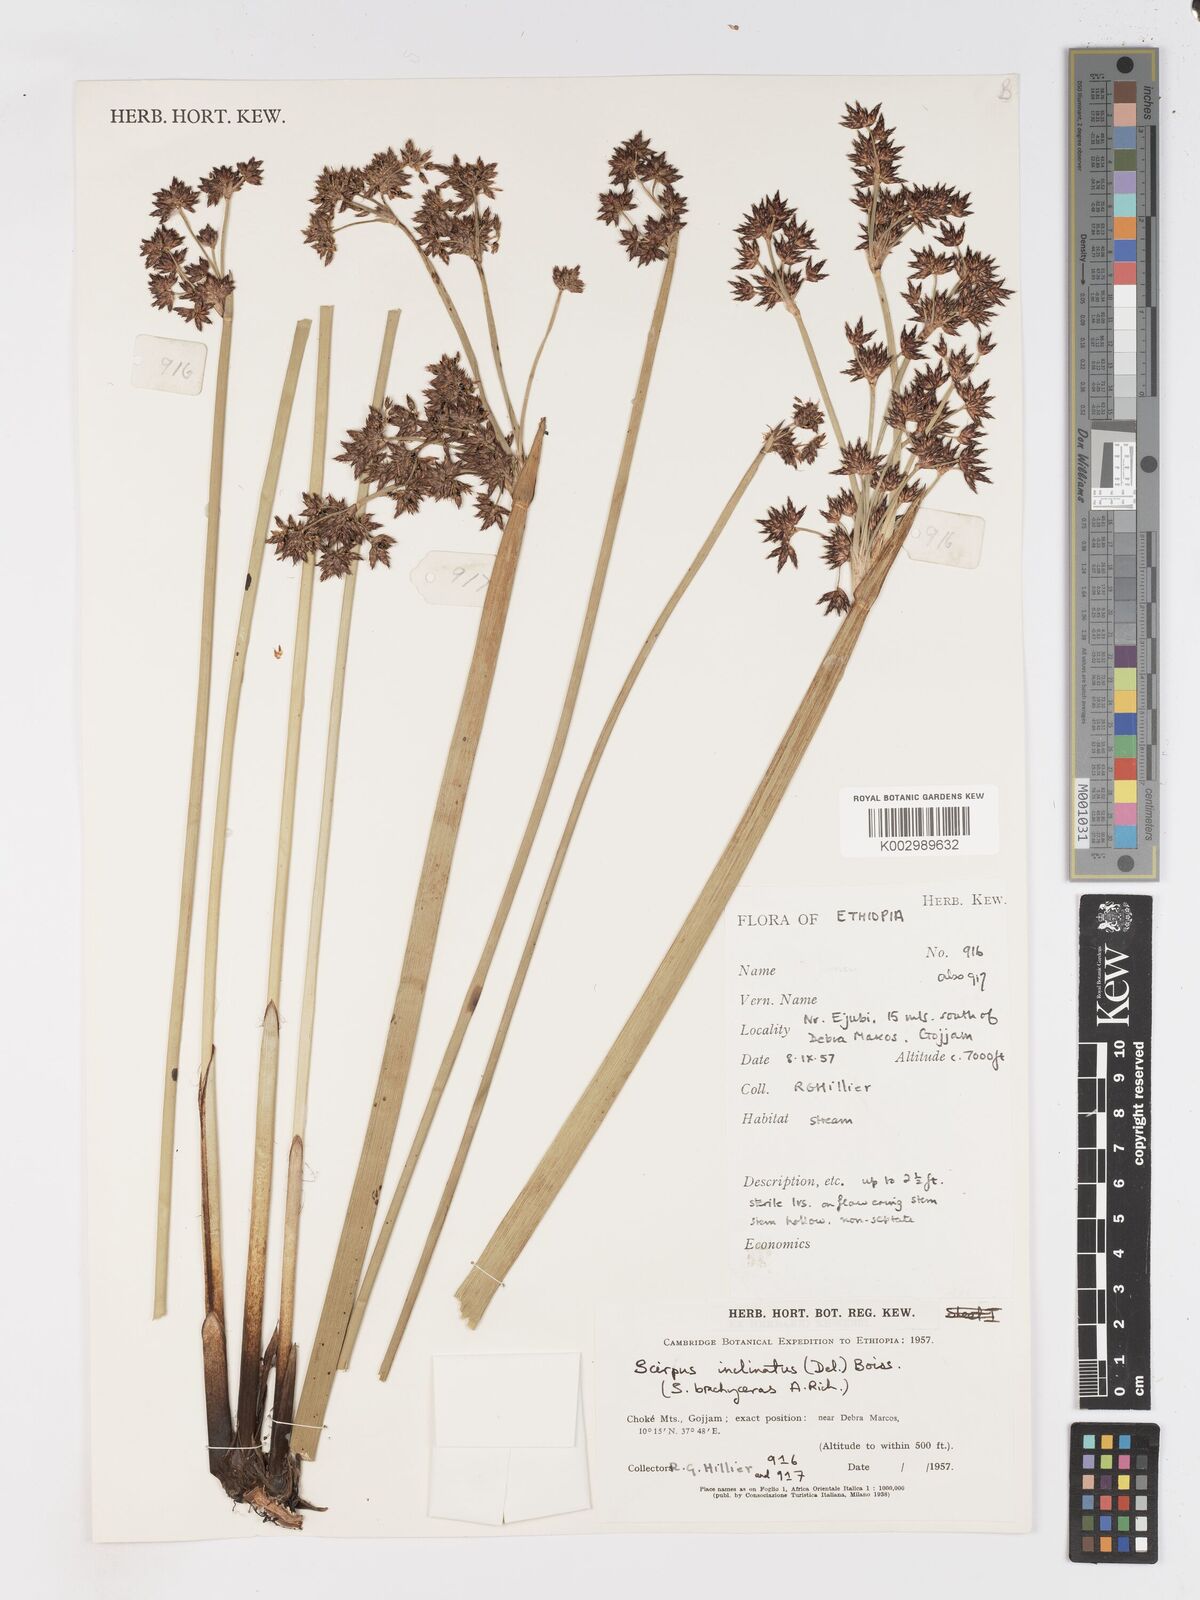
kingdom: Plantae
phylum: Tracheophyta
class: Liliopsida
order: Poales
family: Cyperaceae
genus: Schoenoplectiella
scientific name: Schoenoplectiella brachyceras
